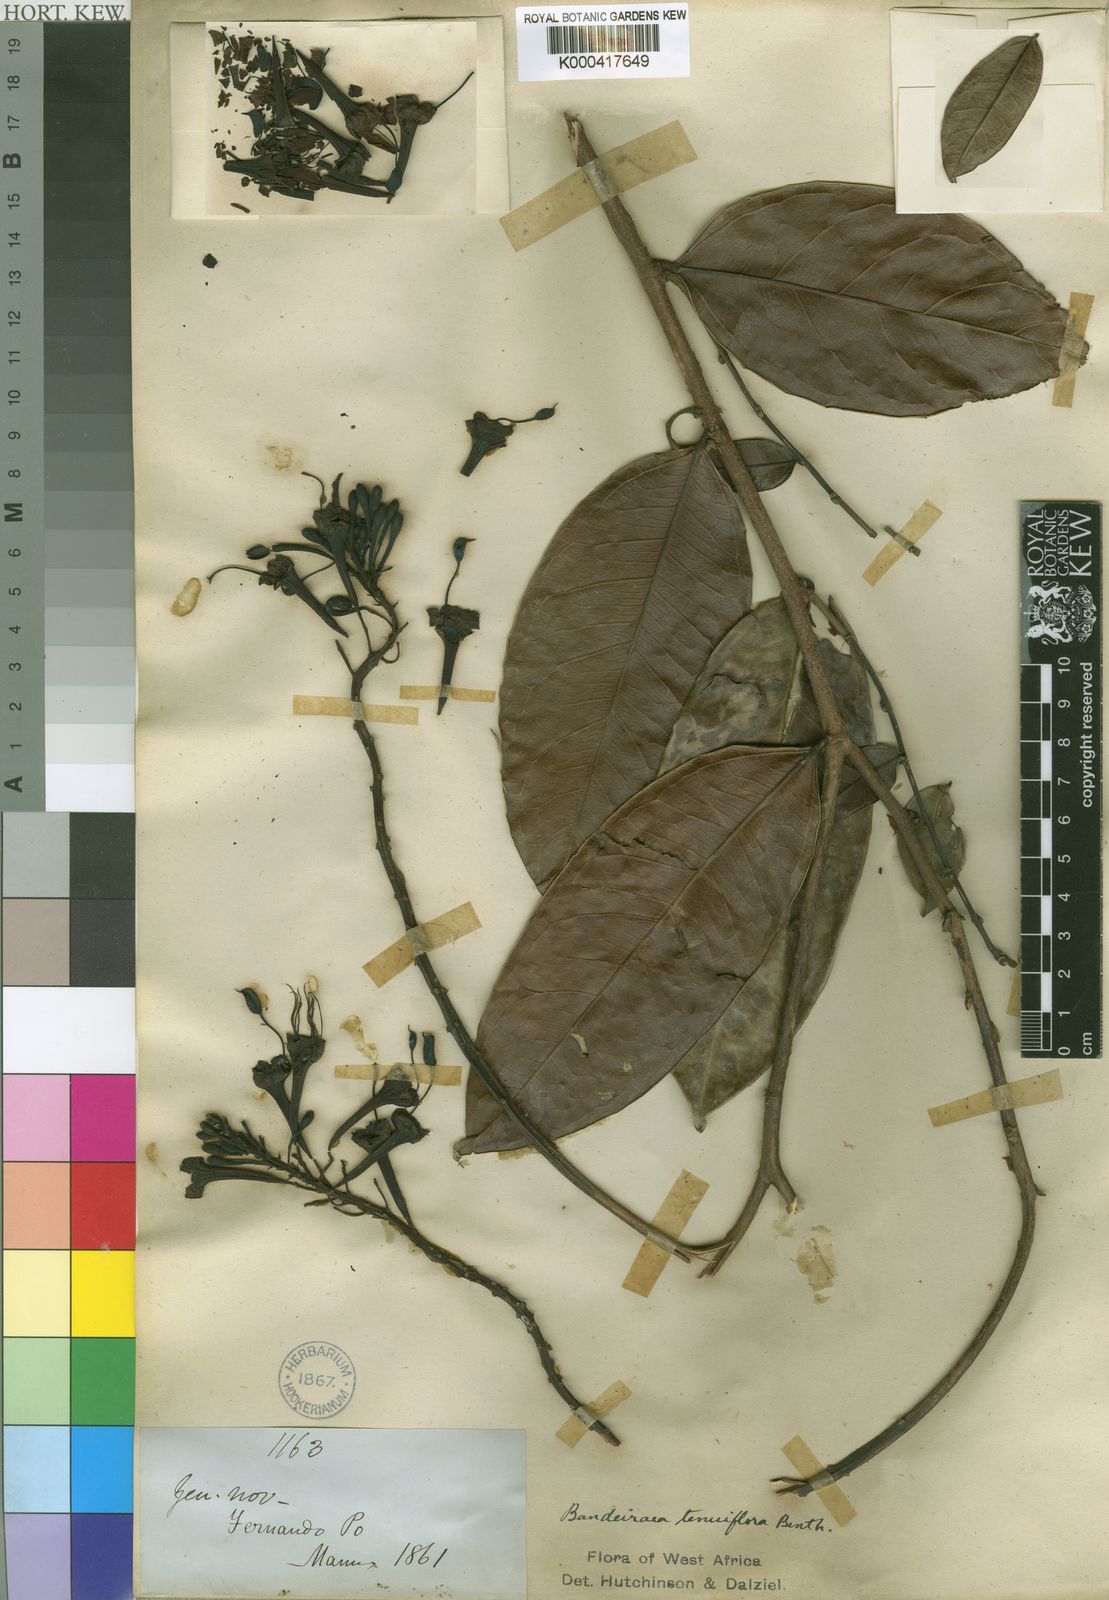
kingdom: Plantae
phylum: Tracheophyta
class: Magnoliopsida
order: Fabales
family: Fabaceae
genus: Griffonia
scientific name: Griffonia physocarpa
